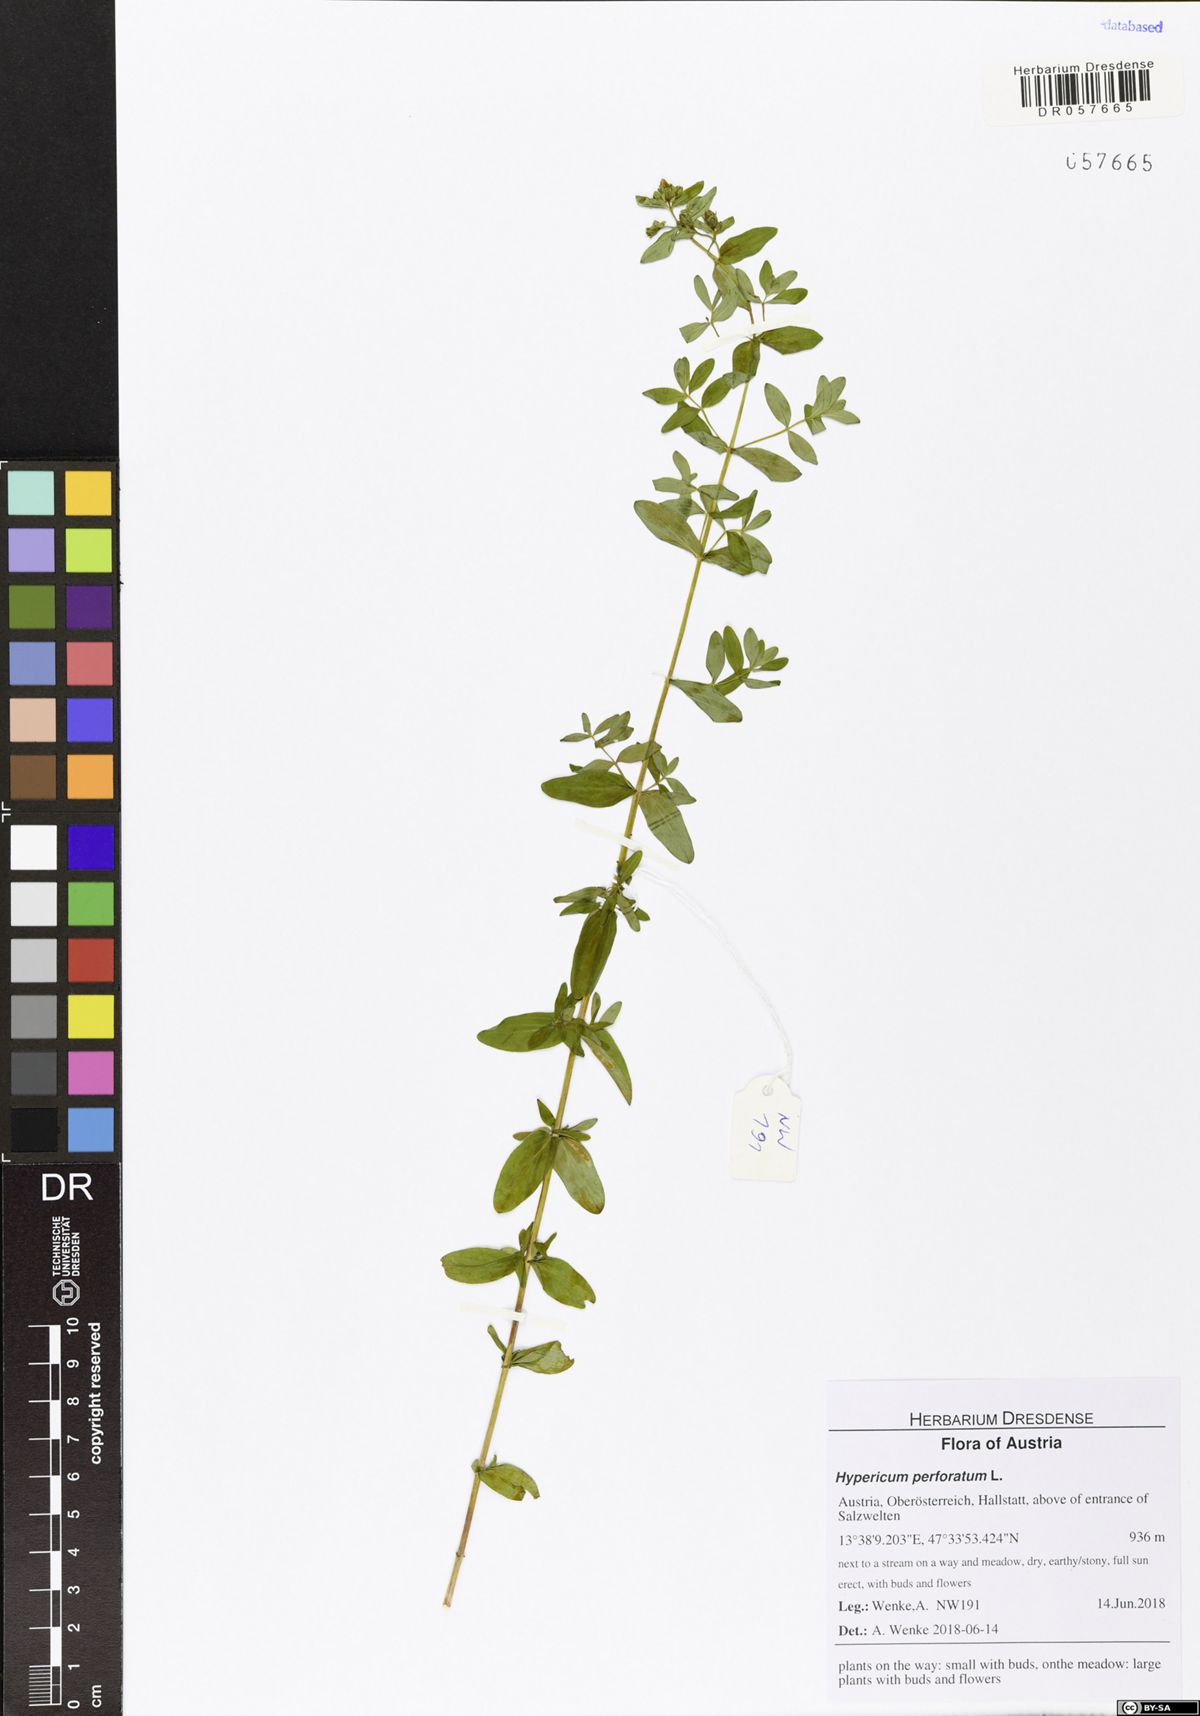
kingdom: Plantae
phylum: Tracheophyta
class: Magnoliopsida
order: Malpighiales
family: Hypericaceae
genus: Hypericum
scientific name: Hypericum perforatum
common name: Common st. johnswort
